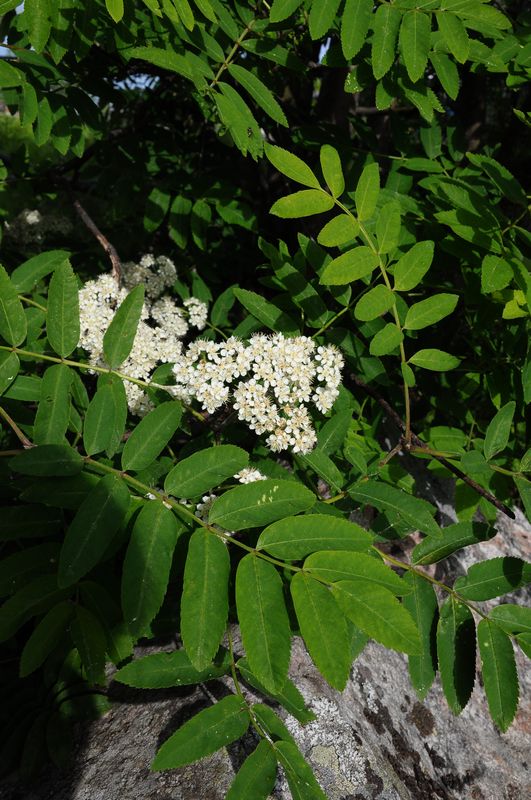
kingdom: Plantae
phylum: Tracheophyta
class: Magnoliopsida
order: Rosales
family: Rosaceae
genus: Sorbus
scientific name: Sorbus aucuparia
